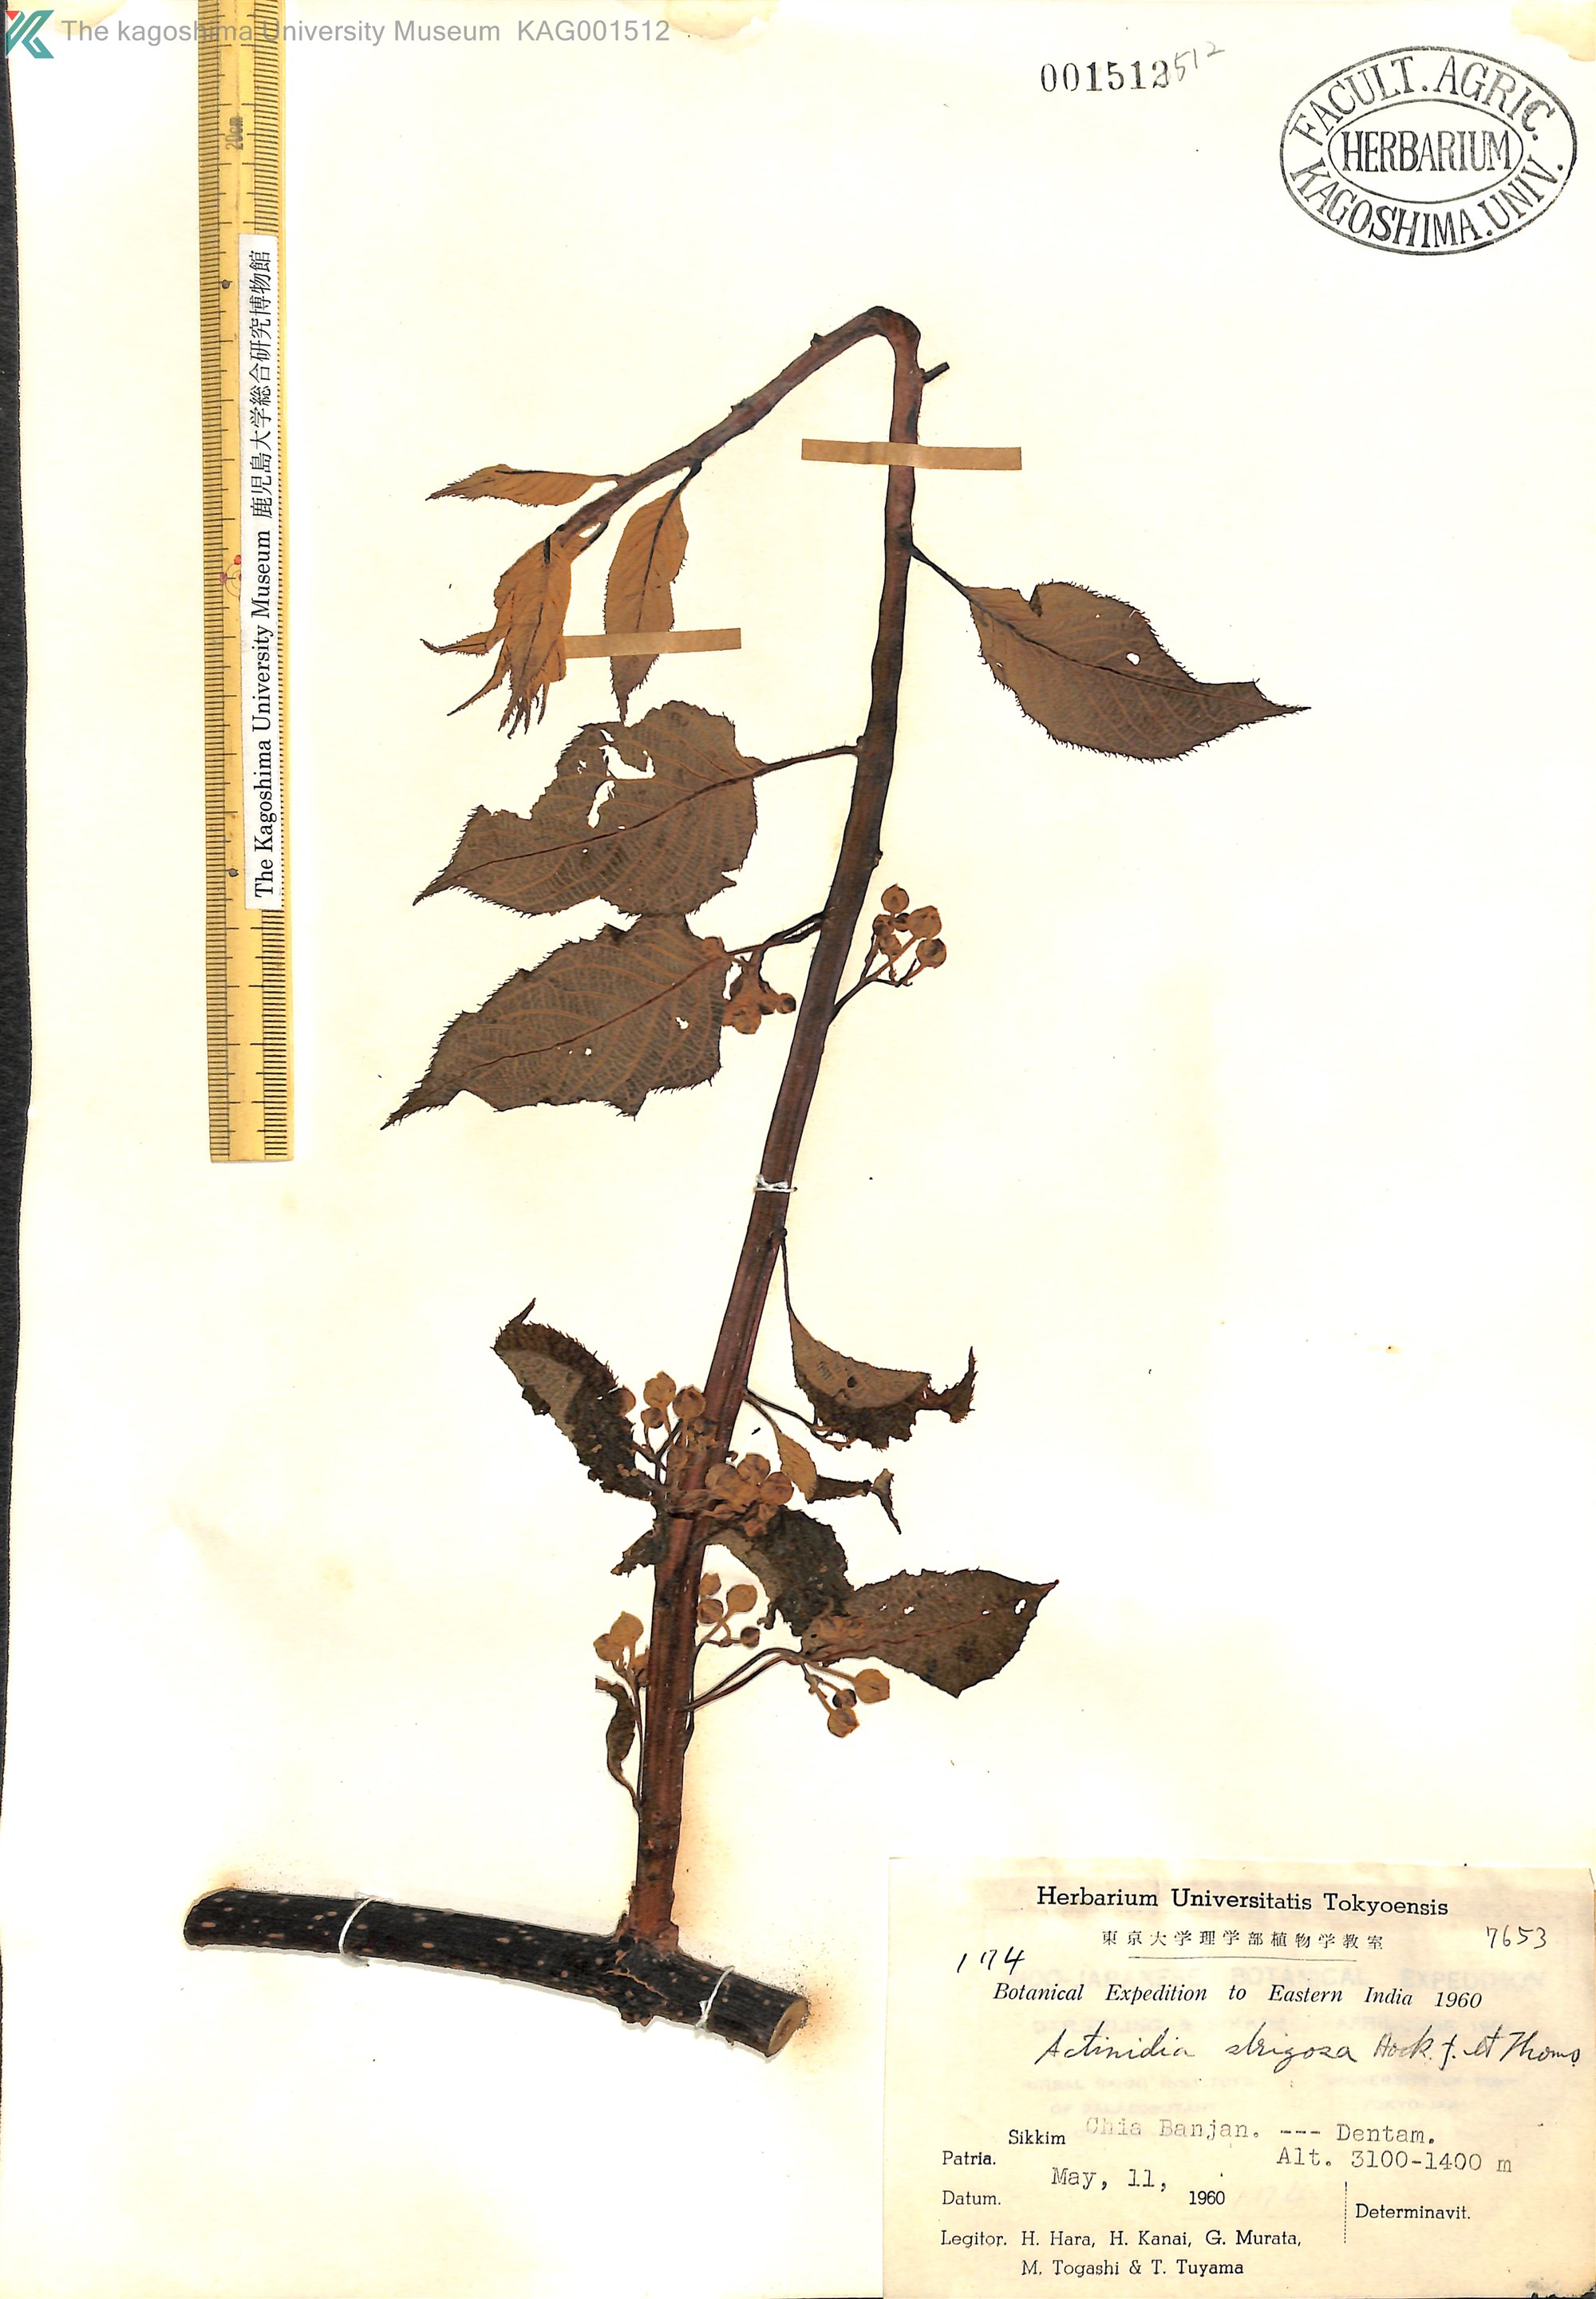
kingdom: Plantae
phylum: Tracheophyta
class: Magnoliopsida
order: Ericales
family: Actinidiaceae
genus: Actinidia
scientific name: Actinidia strigosa
